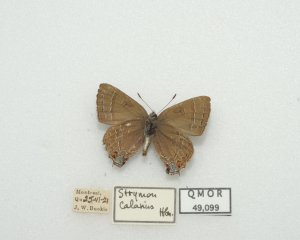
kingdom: Animalia
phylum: Arthropoda
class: Insecta
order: Lepidoptera
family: Lycaenidae
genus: Satyrium
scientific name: Satyrium calanus
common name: Banded Hairstreak
